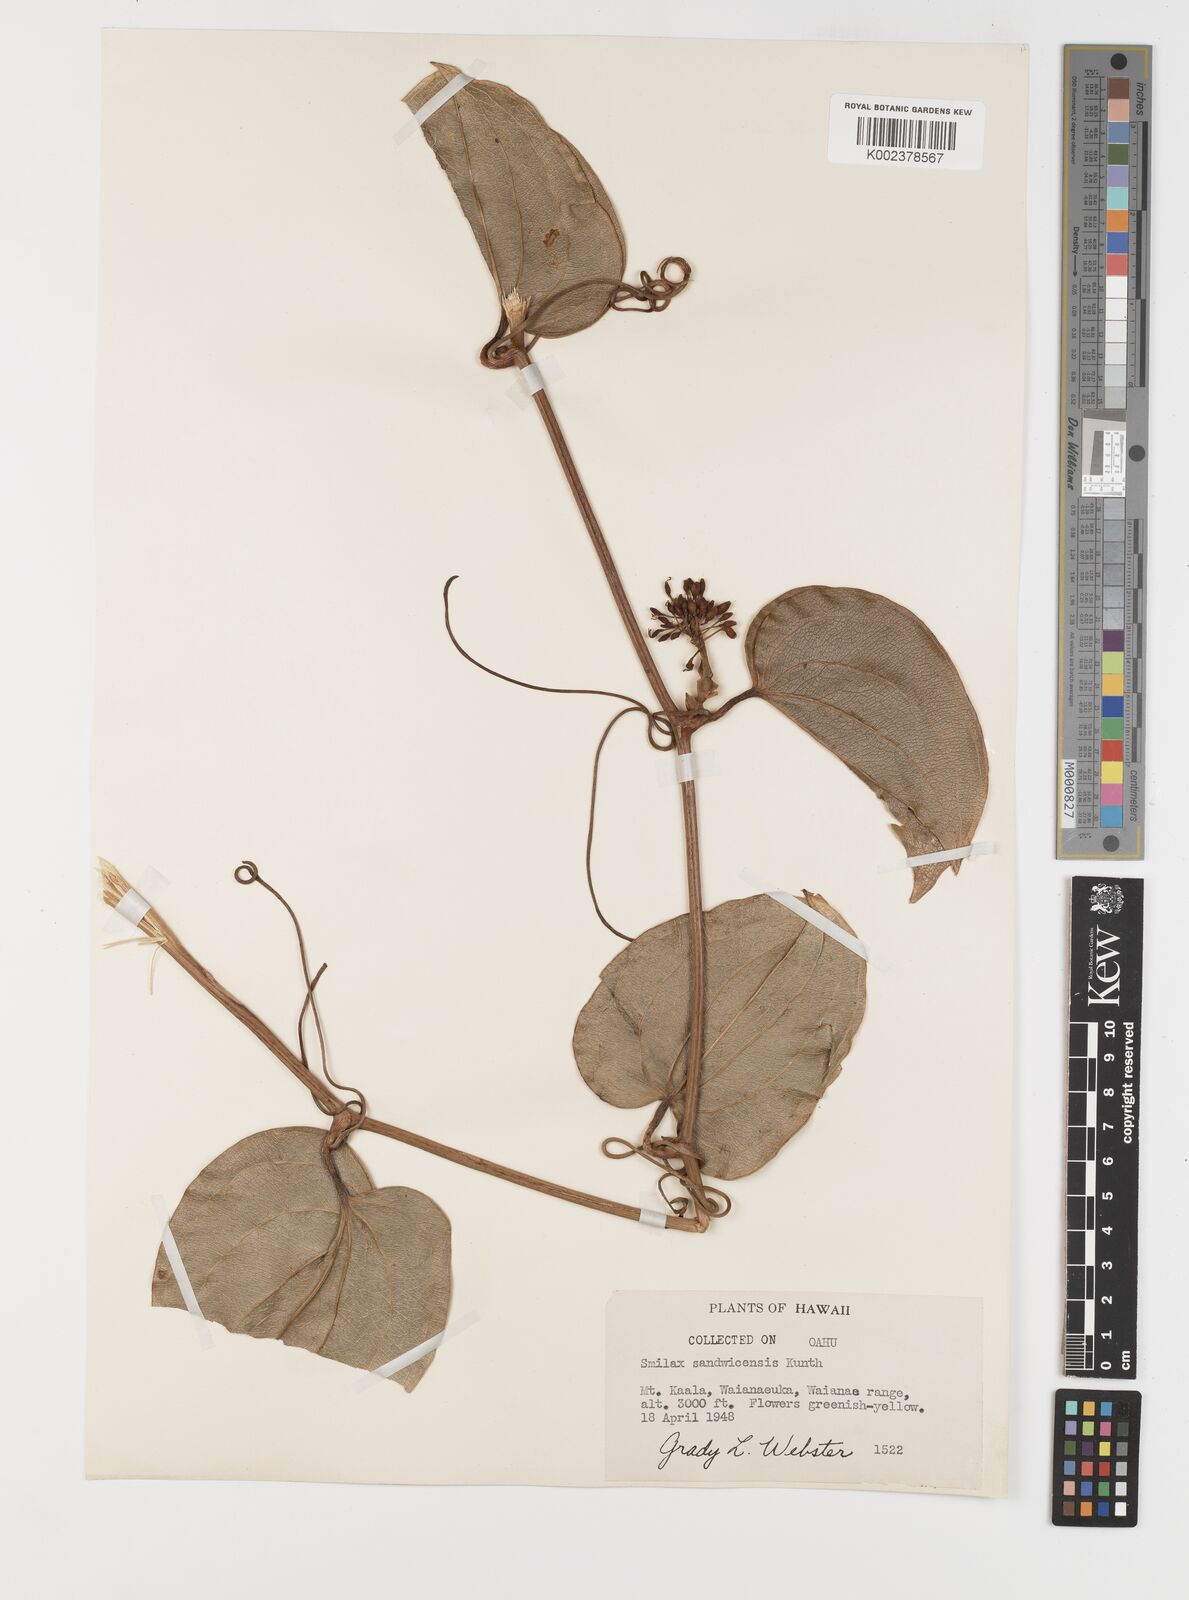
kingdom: Plantae
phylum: Tracheophyta
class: Liliopsida
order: Liliales
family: Smilacaceae
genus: Smilax
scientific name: Smilax melastomifolia
